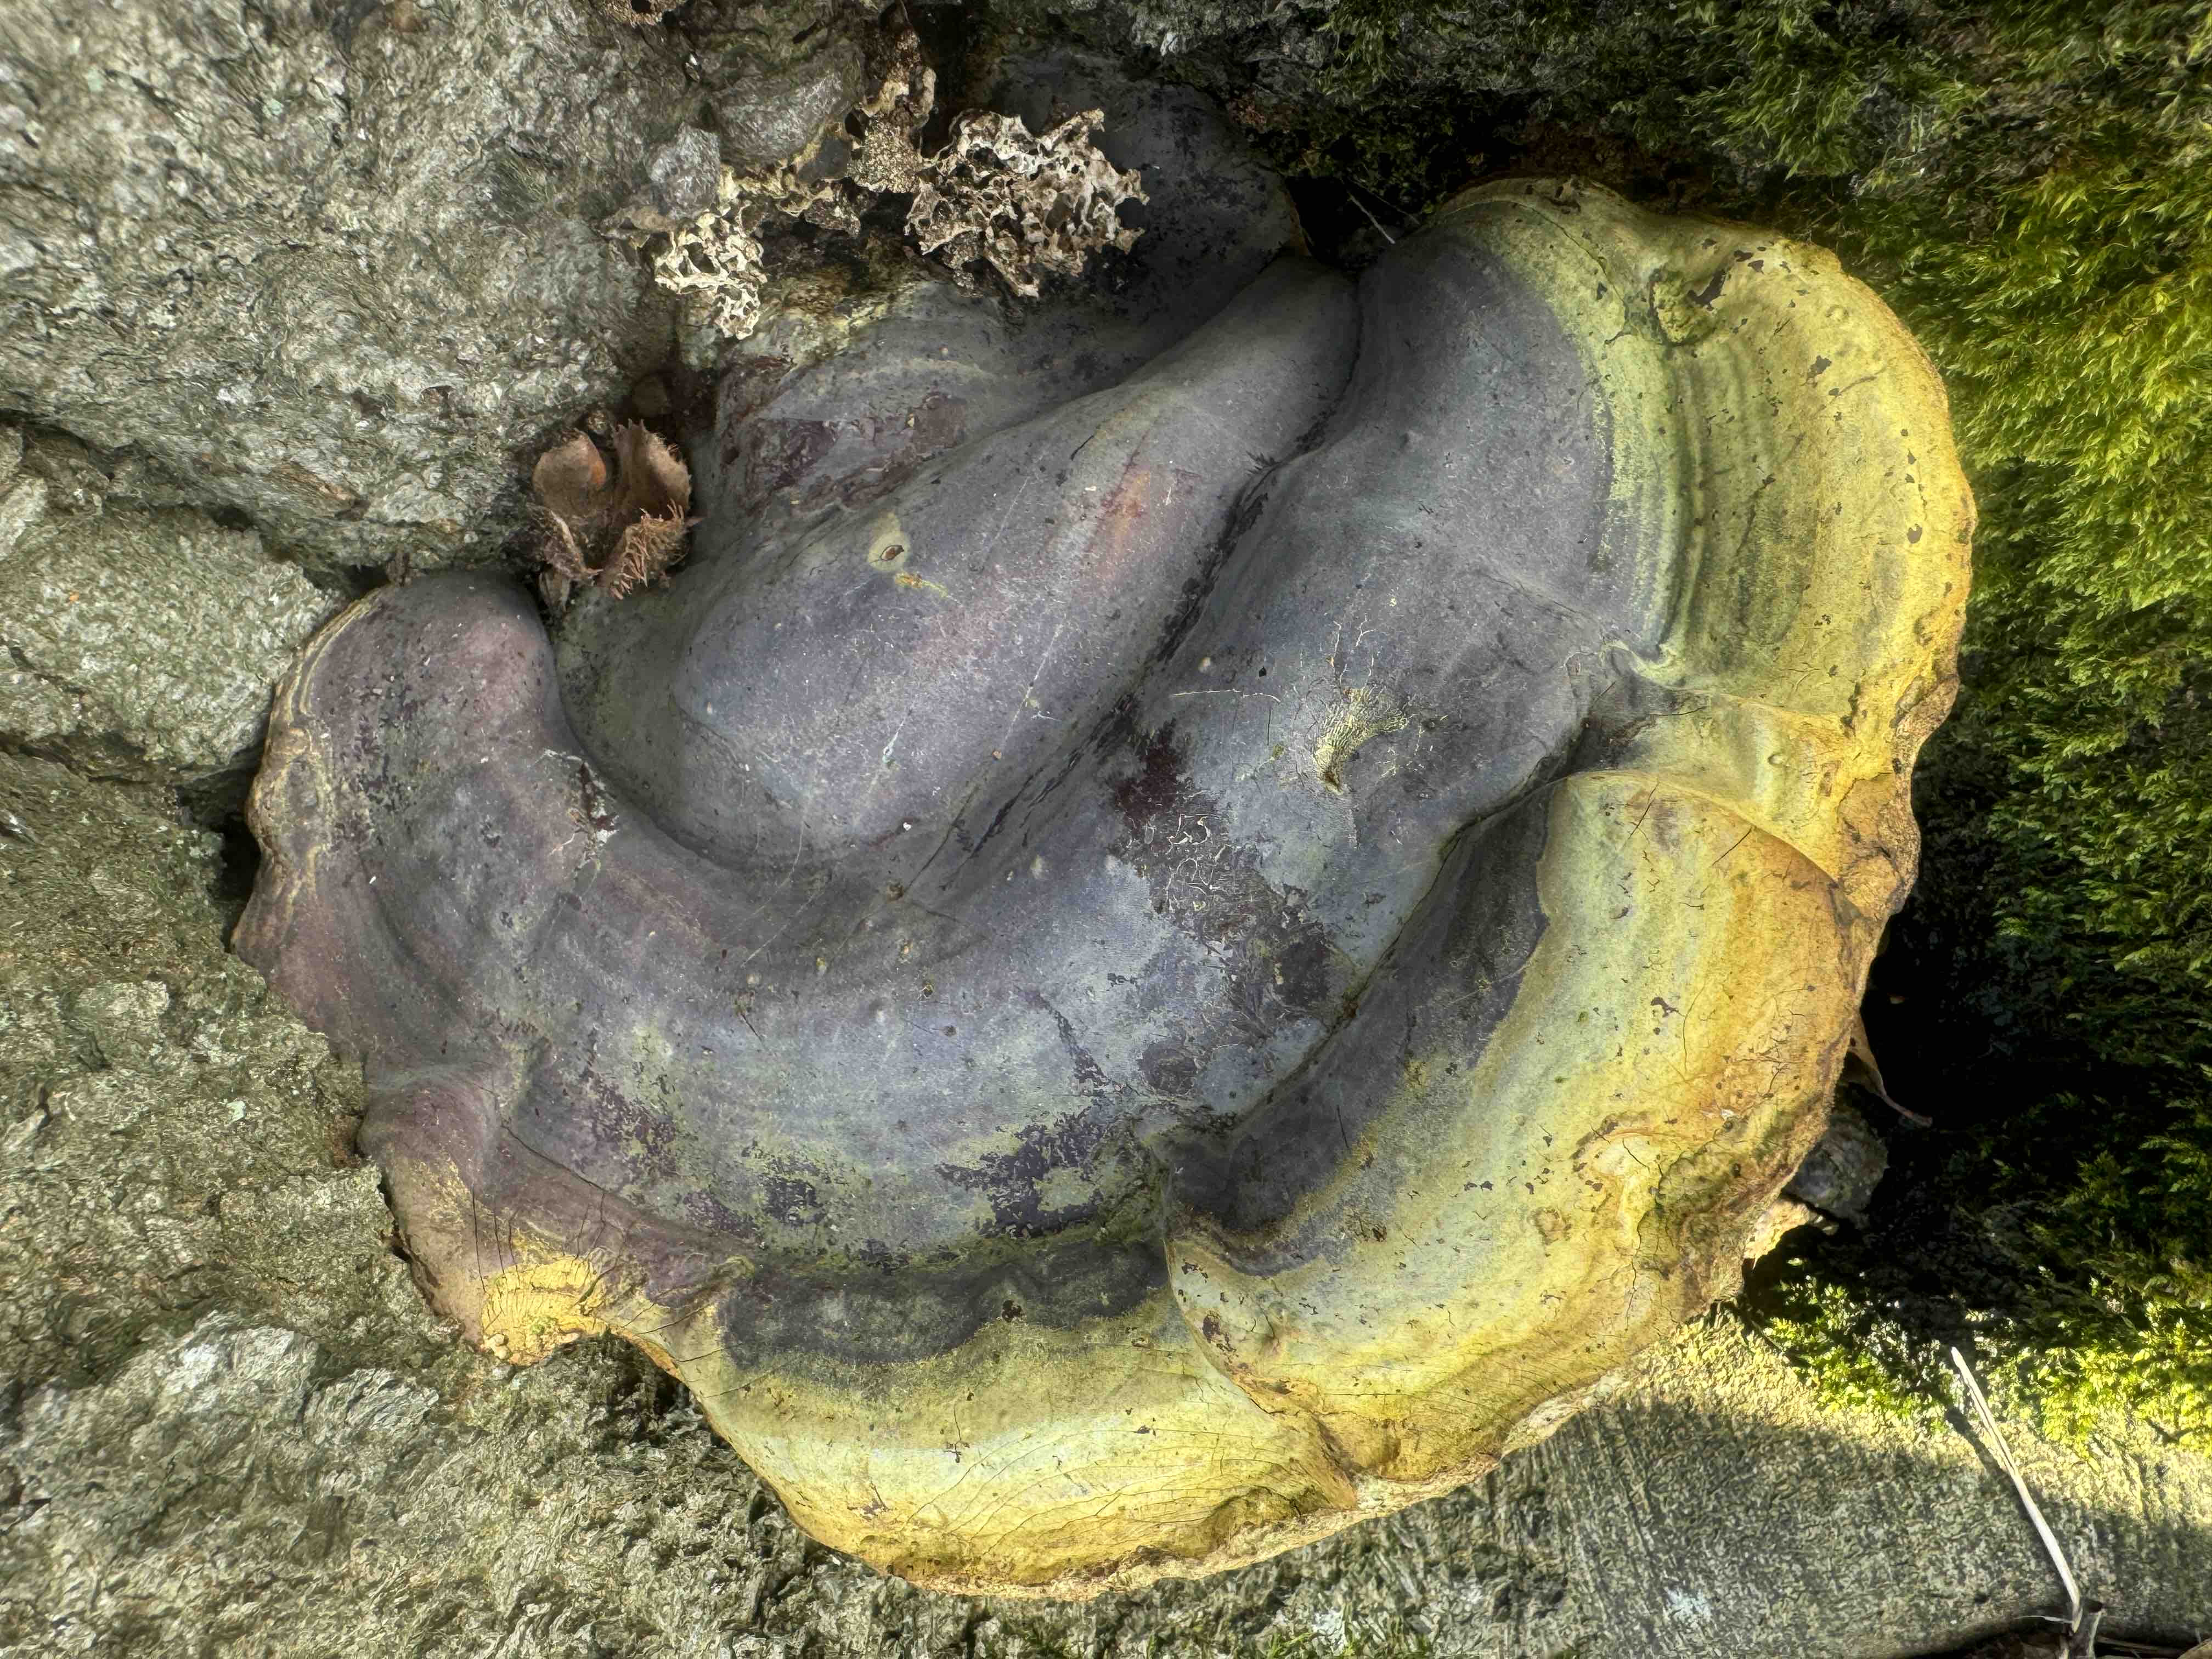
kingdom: Fungi
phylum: Basidiomycota
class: Agaricomycetes
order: Polyporales
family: Polyporaceae
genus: Ganoderma
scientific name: Ganoderma resinaceum
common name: gyldenbrun lakporesvamp
